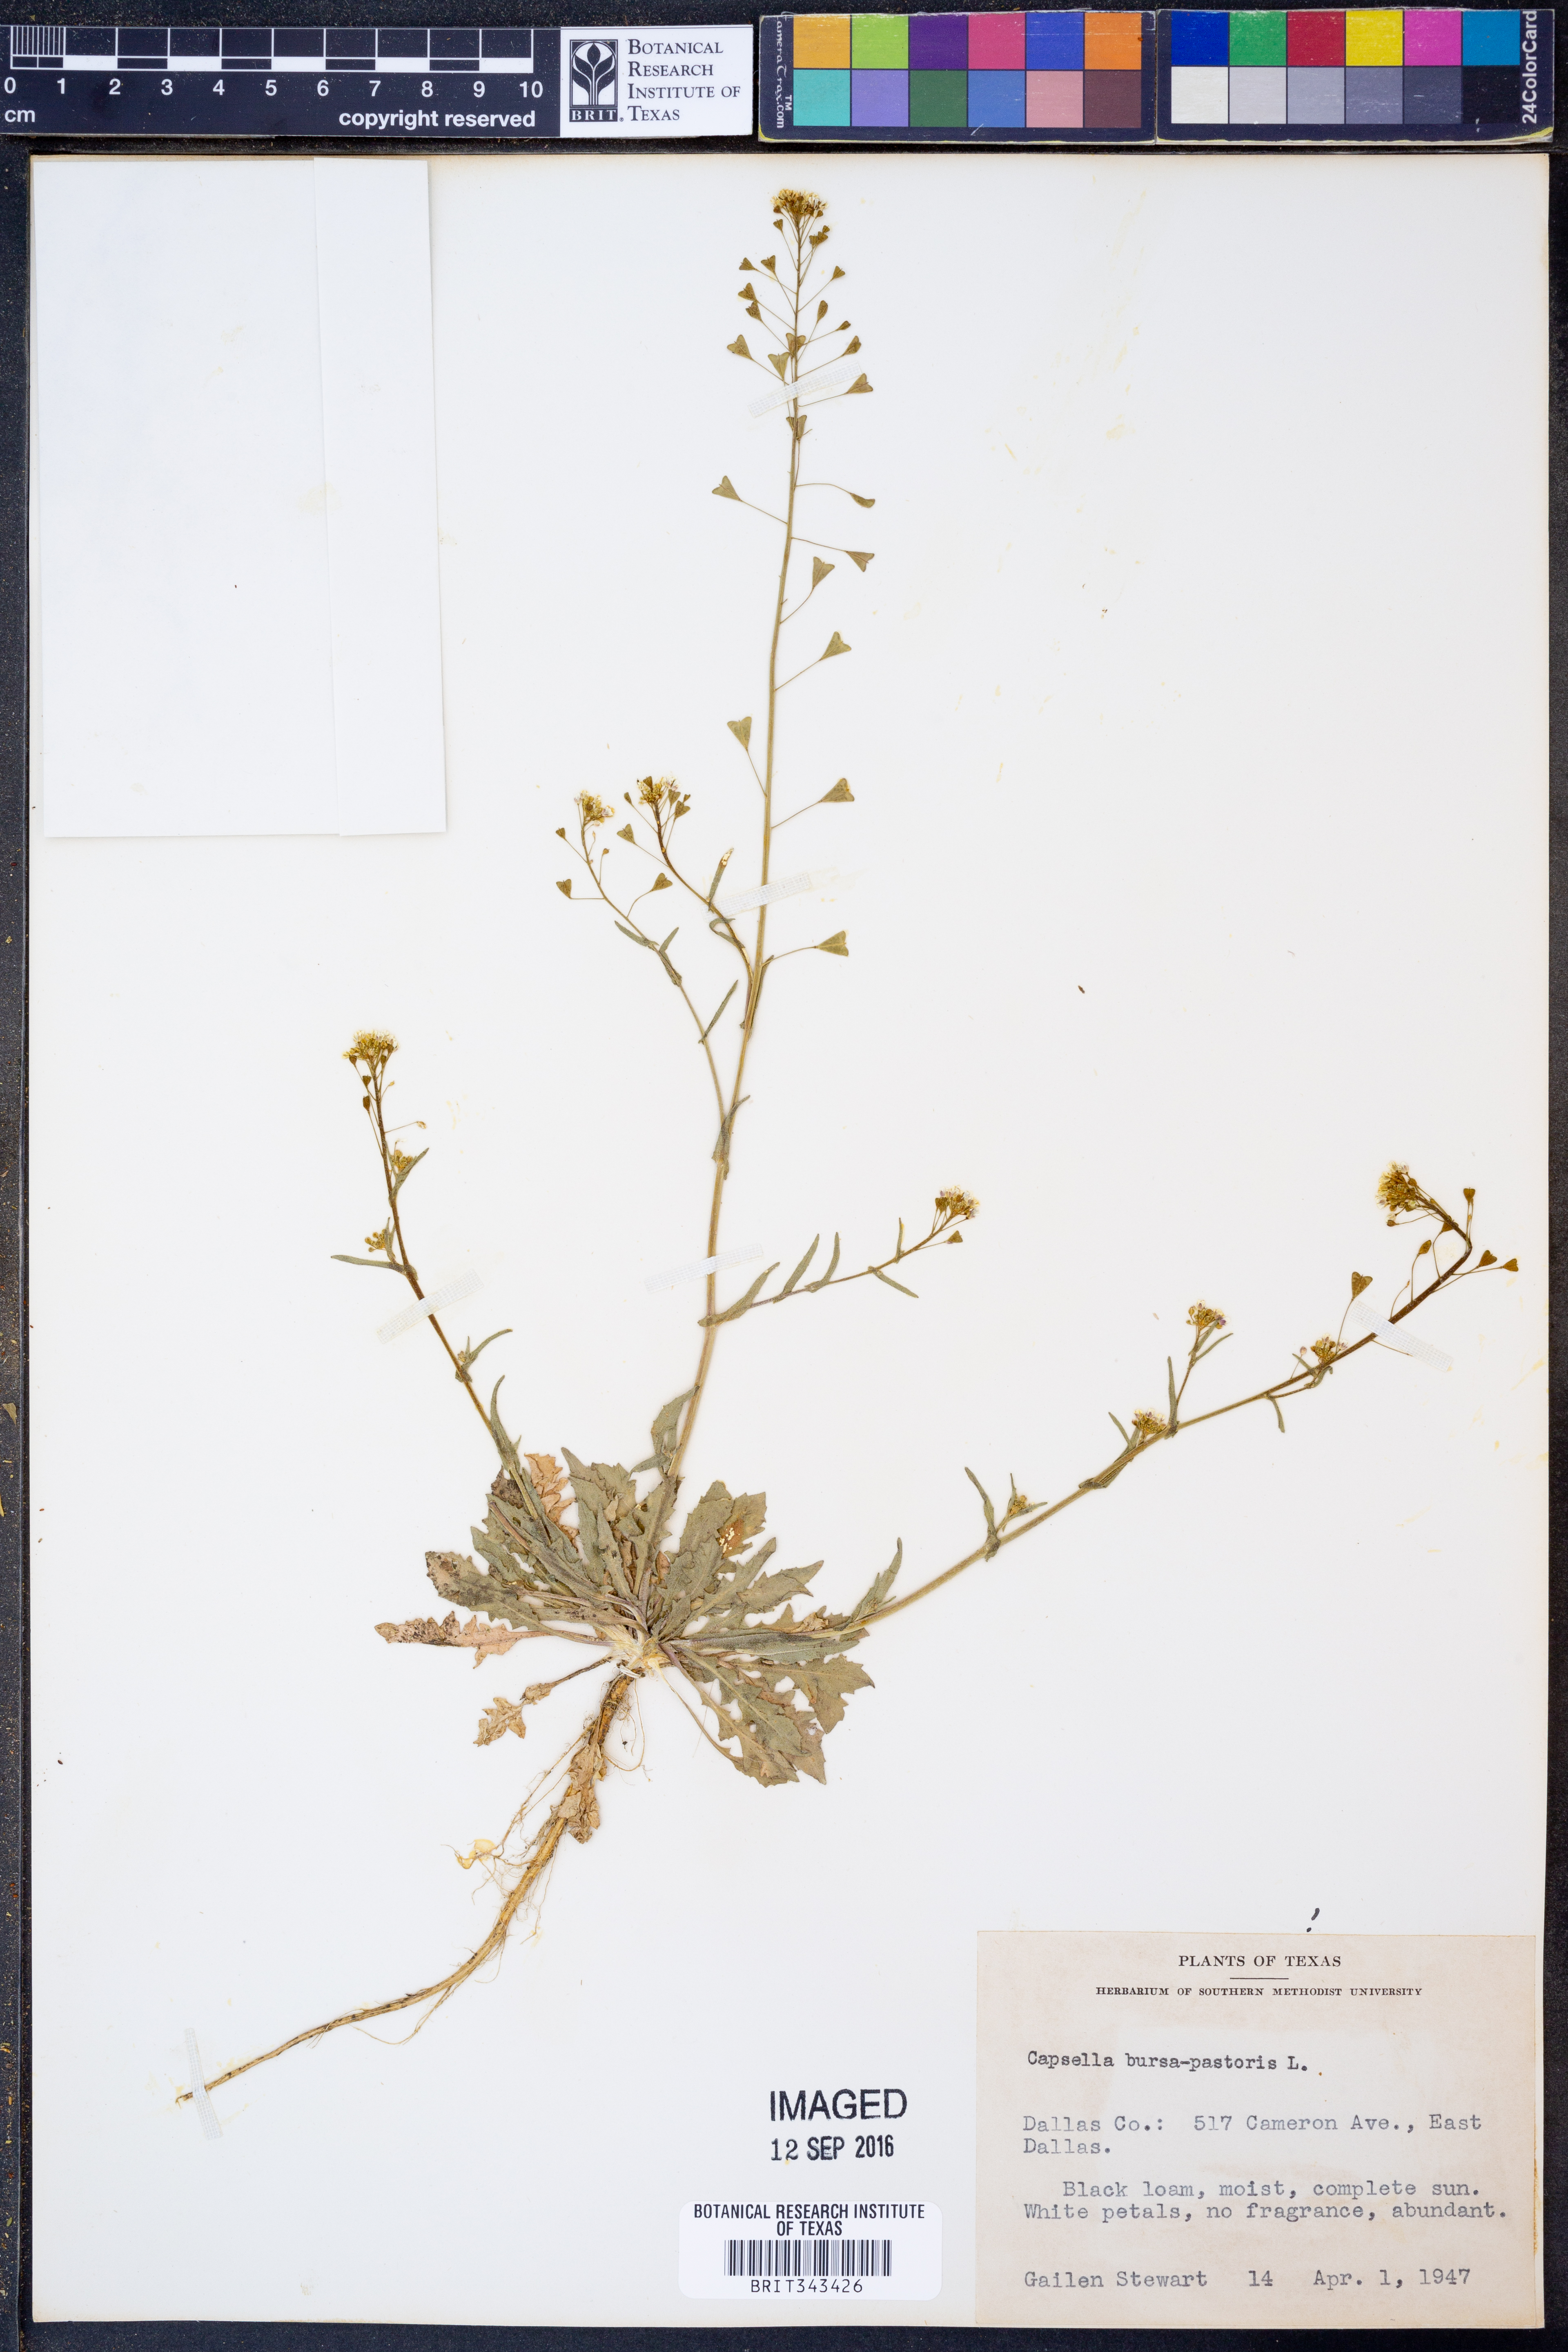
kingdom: Plantae
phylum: Tracheophyta
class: Magnoliopsida
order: Brassicales
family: Brassicaceae
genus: Capsella
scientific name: Capsella bursa-pastoris
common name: Shepherd's purse
